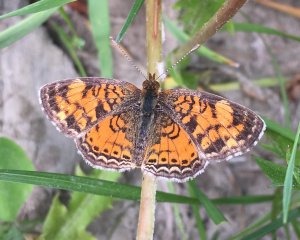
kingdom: Animalia
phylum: Arthropoda
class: Insecta
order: Lepidoptera
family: Nymphalidae
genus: Phyciodes
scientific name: Phyciodes tharos
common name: Northern Crescent
